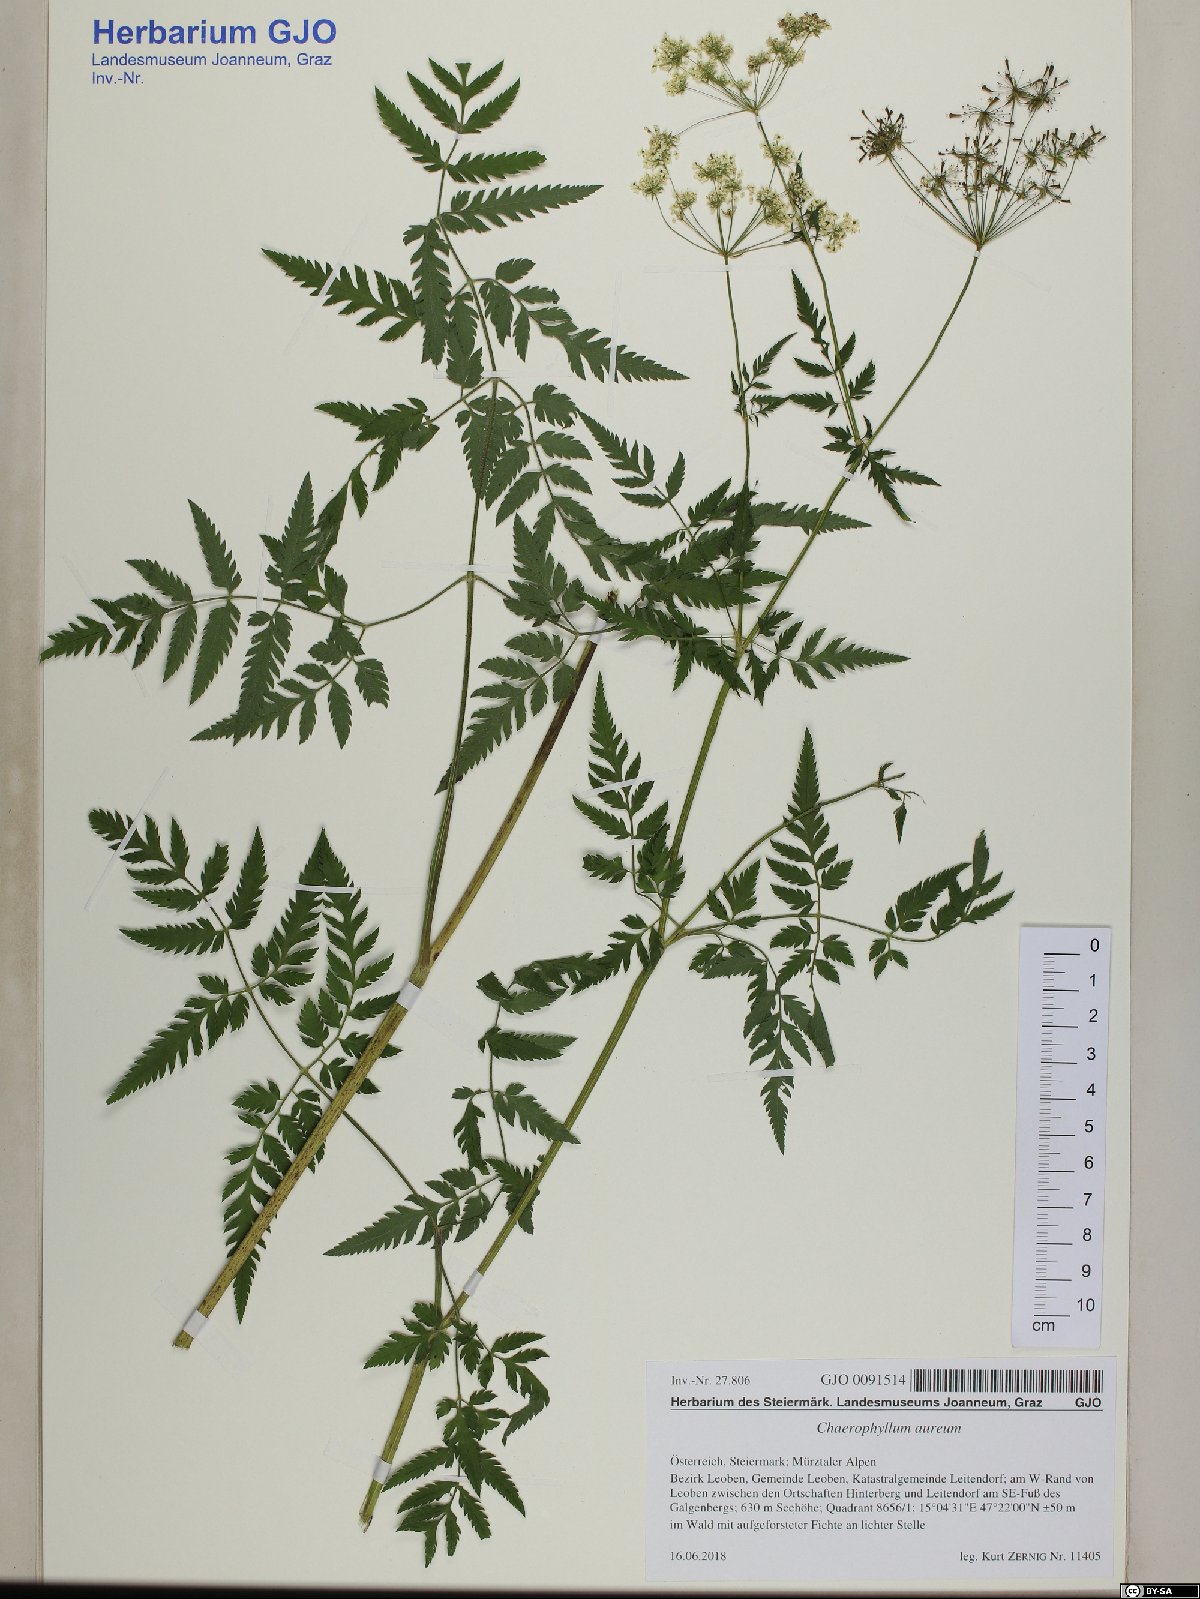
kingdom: Plantae
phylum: Tracheophyta
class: Magnoliopsida
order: Apiales
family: Apiaceae
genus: Chaerophyllum
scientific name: Chaerophyllum aureum
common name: Golden chervil
